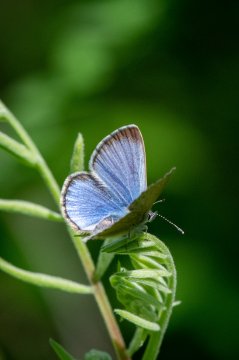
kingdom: Animalia
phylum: Arthropoda
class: Insecta
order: Lepidoptera
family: Lycaenidae
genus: Glaucopsyche
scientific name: Glaucopsyche lygdamus
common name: Silvery Blue
